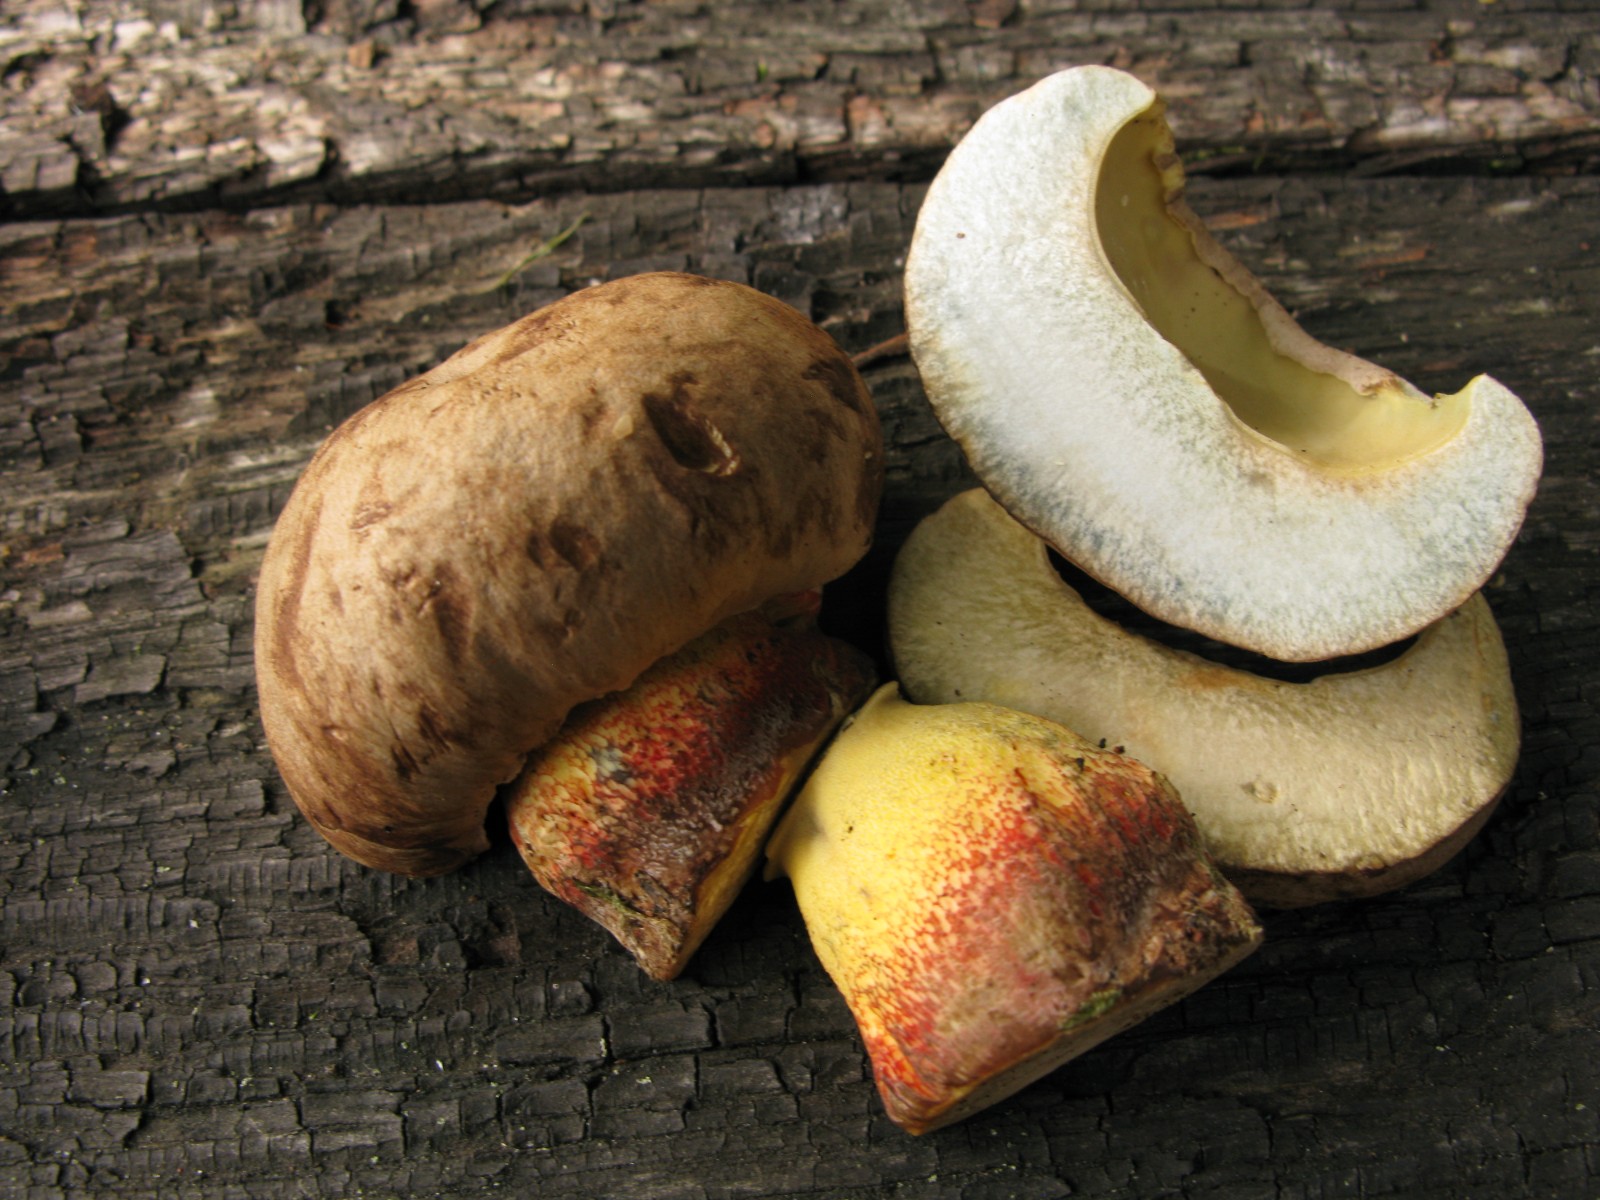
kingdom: Fungi
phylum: Basidiomycota
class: Agaricomycetes
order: Boletales
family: Boletaceae
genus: Caloboletus
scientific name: Caloboletus calopus
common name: skønfodet rørhat
